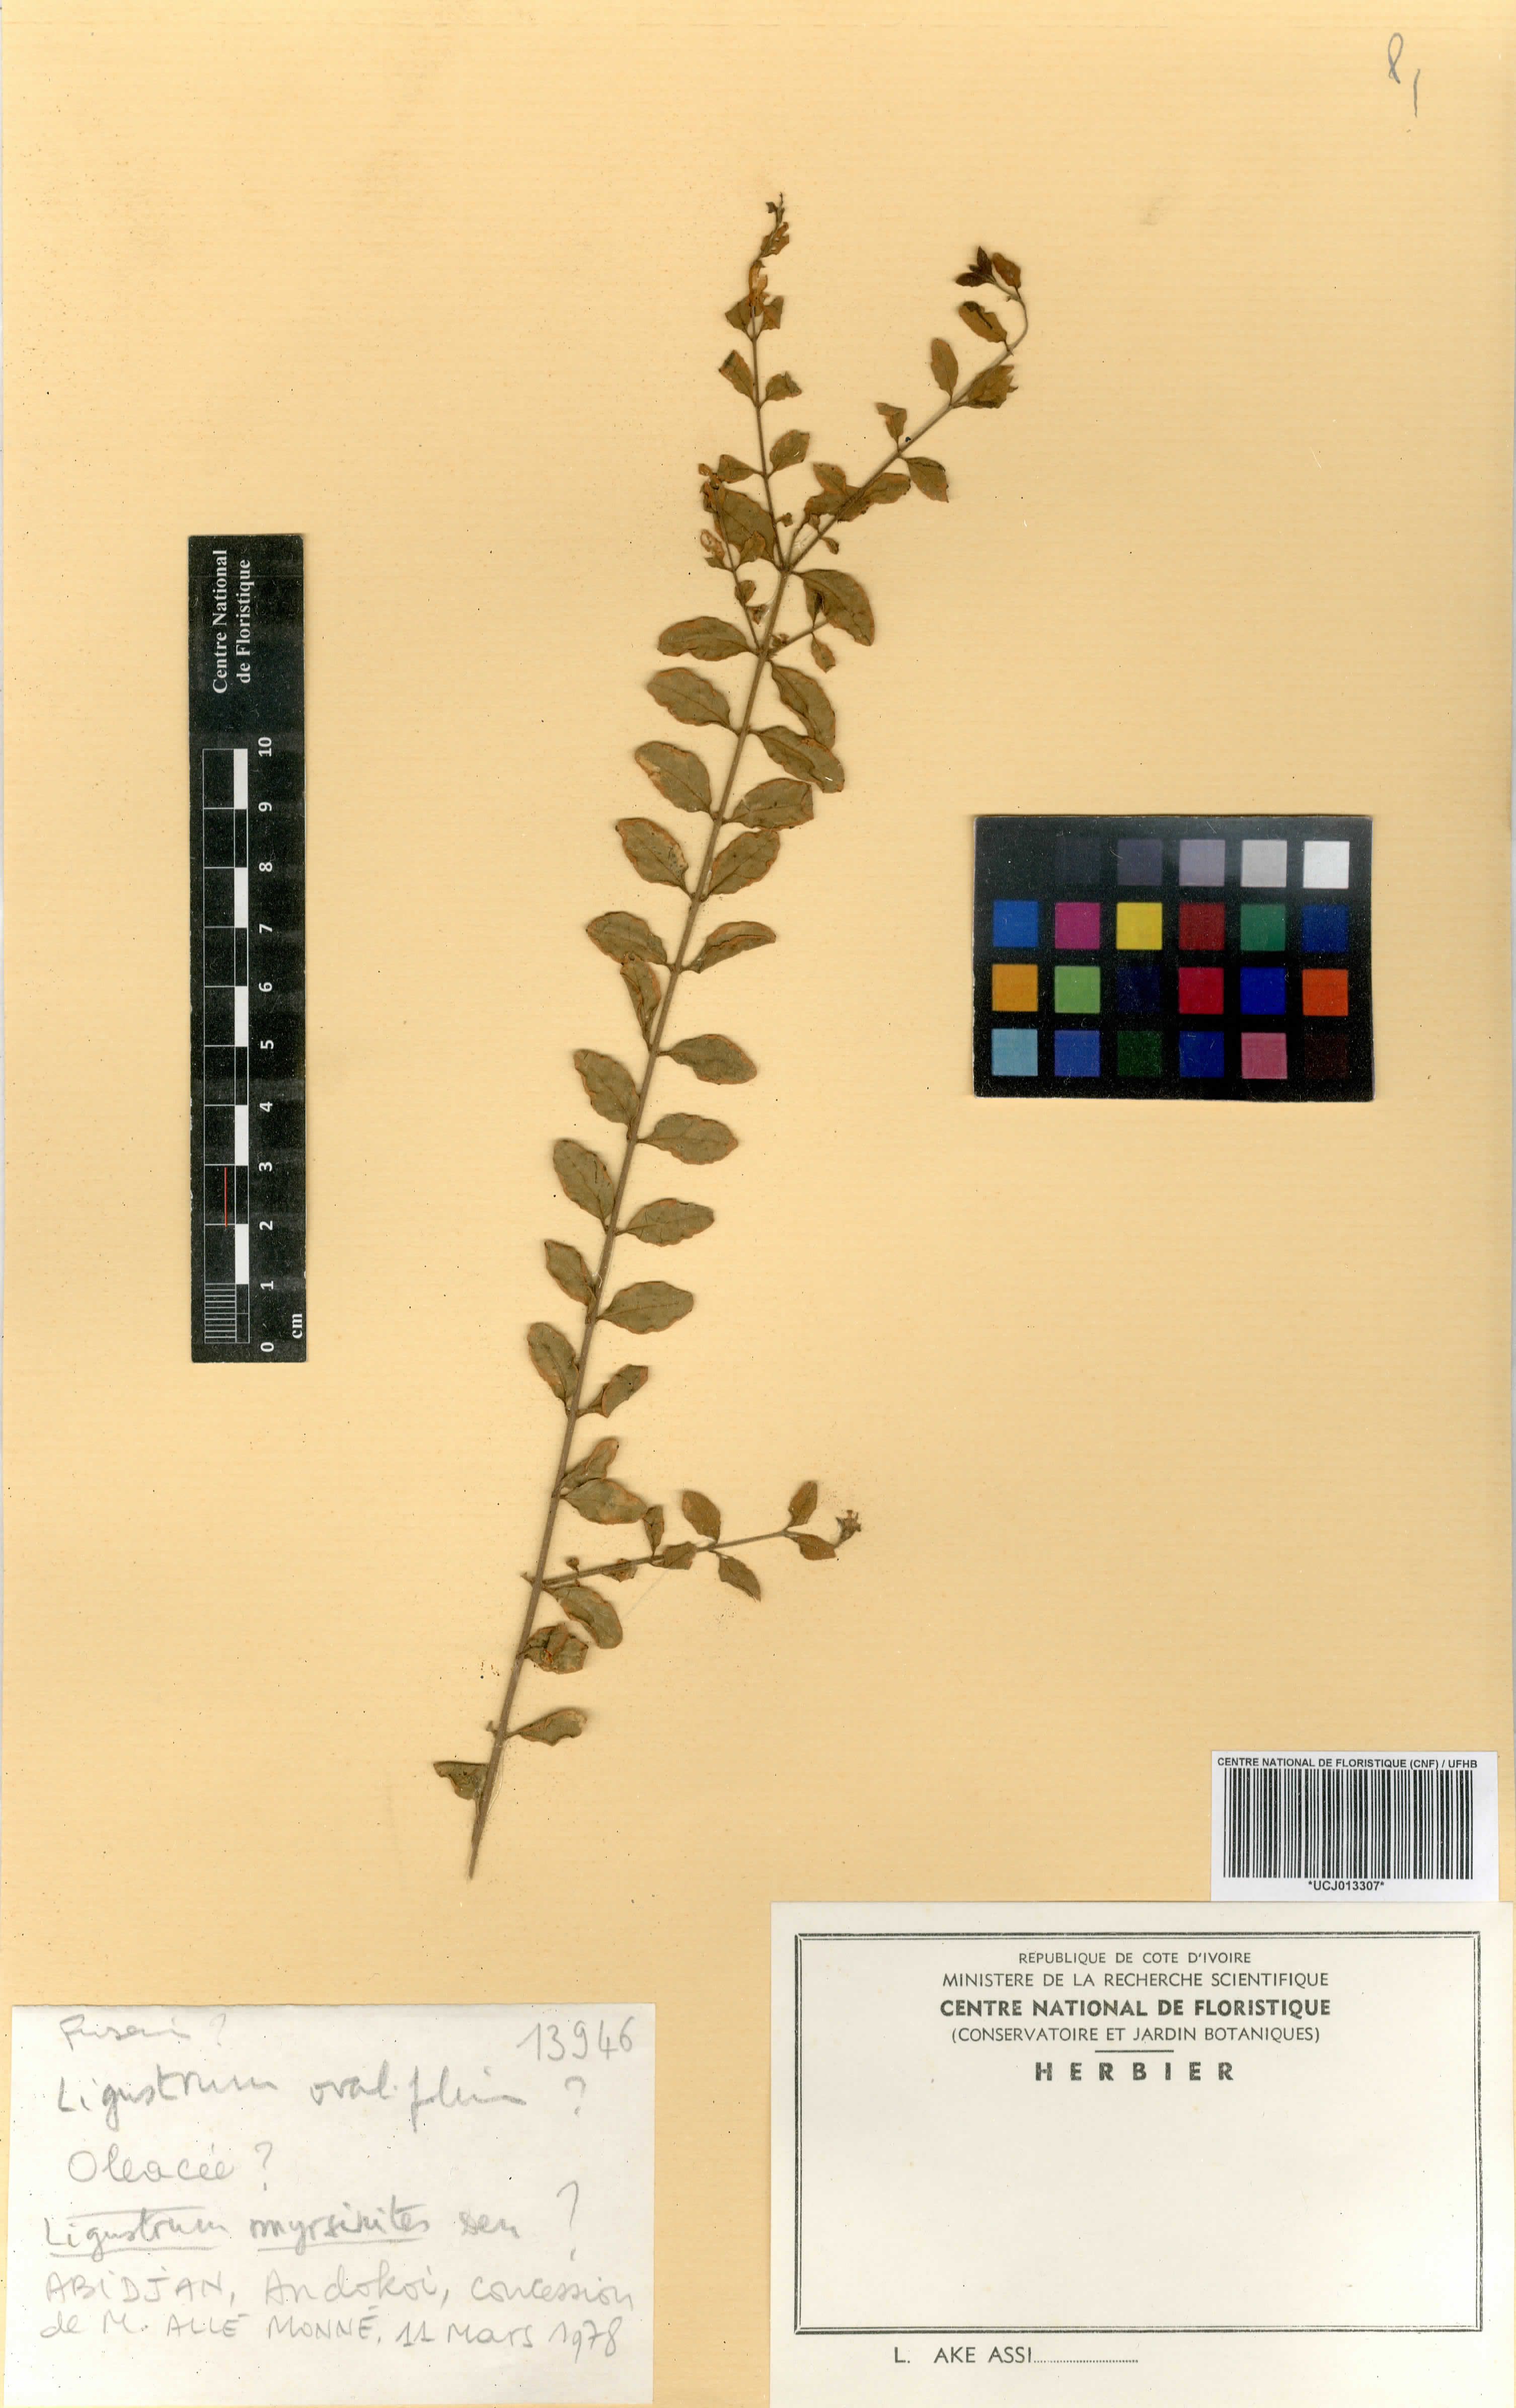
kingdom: Plantae
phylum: Tracheophyta
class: Magnoliopsida
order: Lamiales
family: Oleaceae
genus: Ligustrum
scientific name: Ligustrum myrsinites
